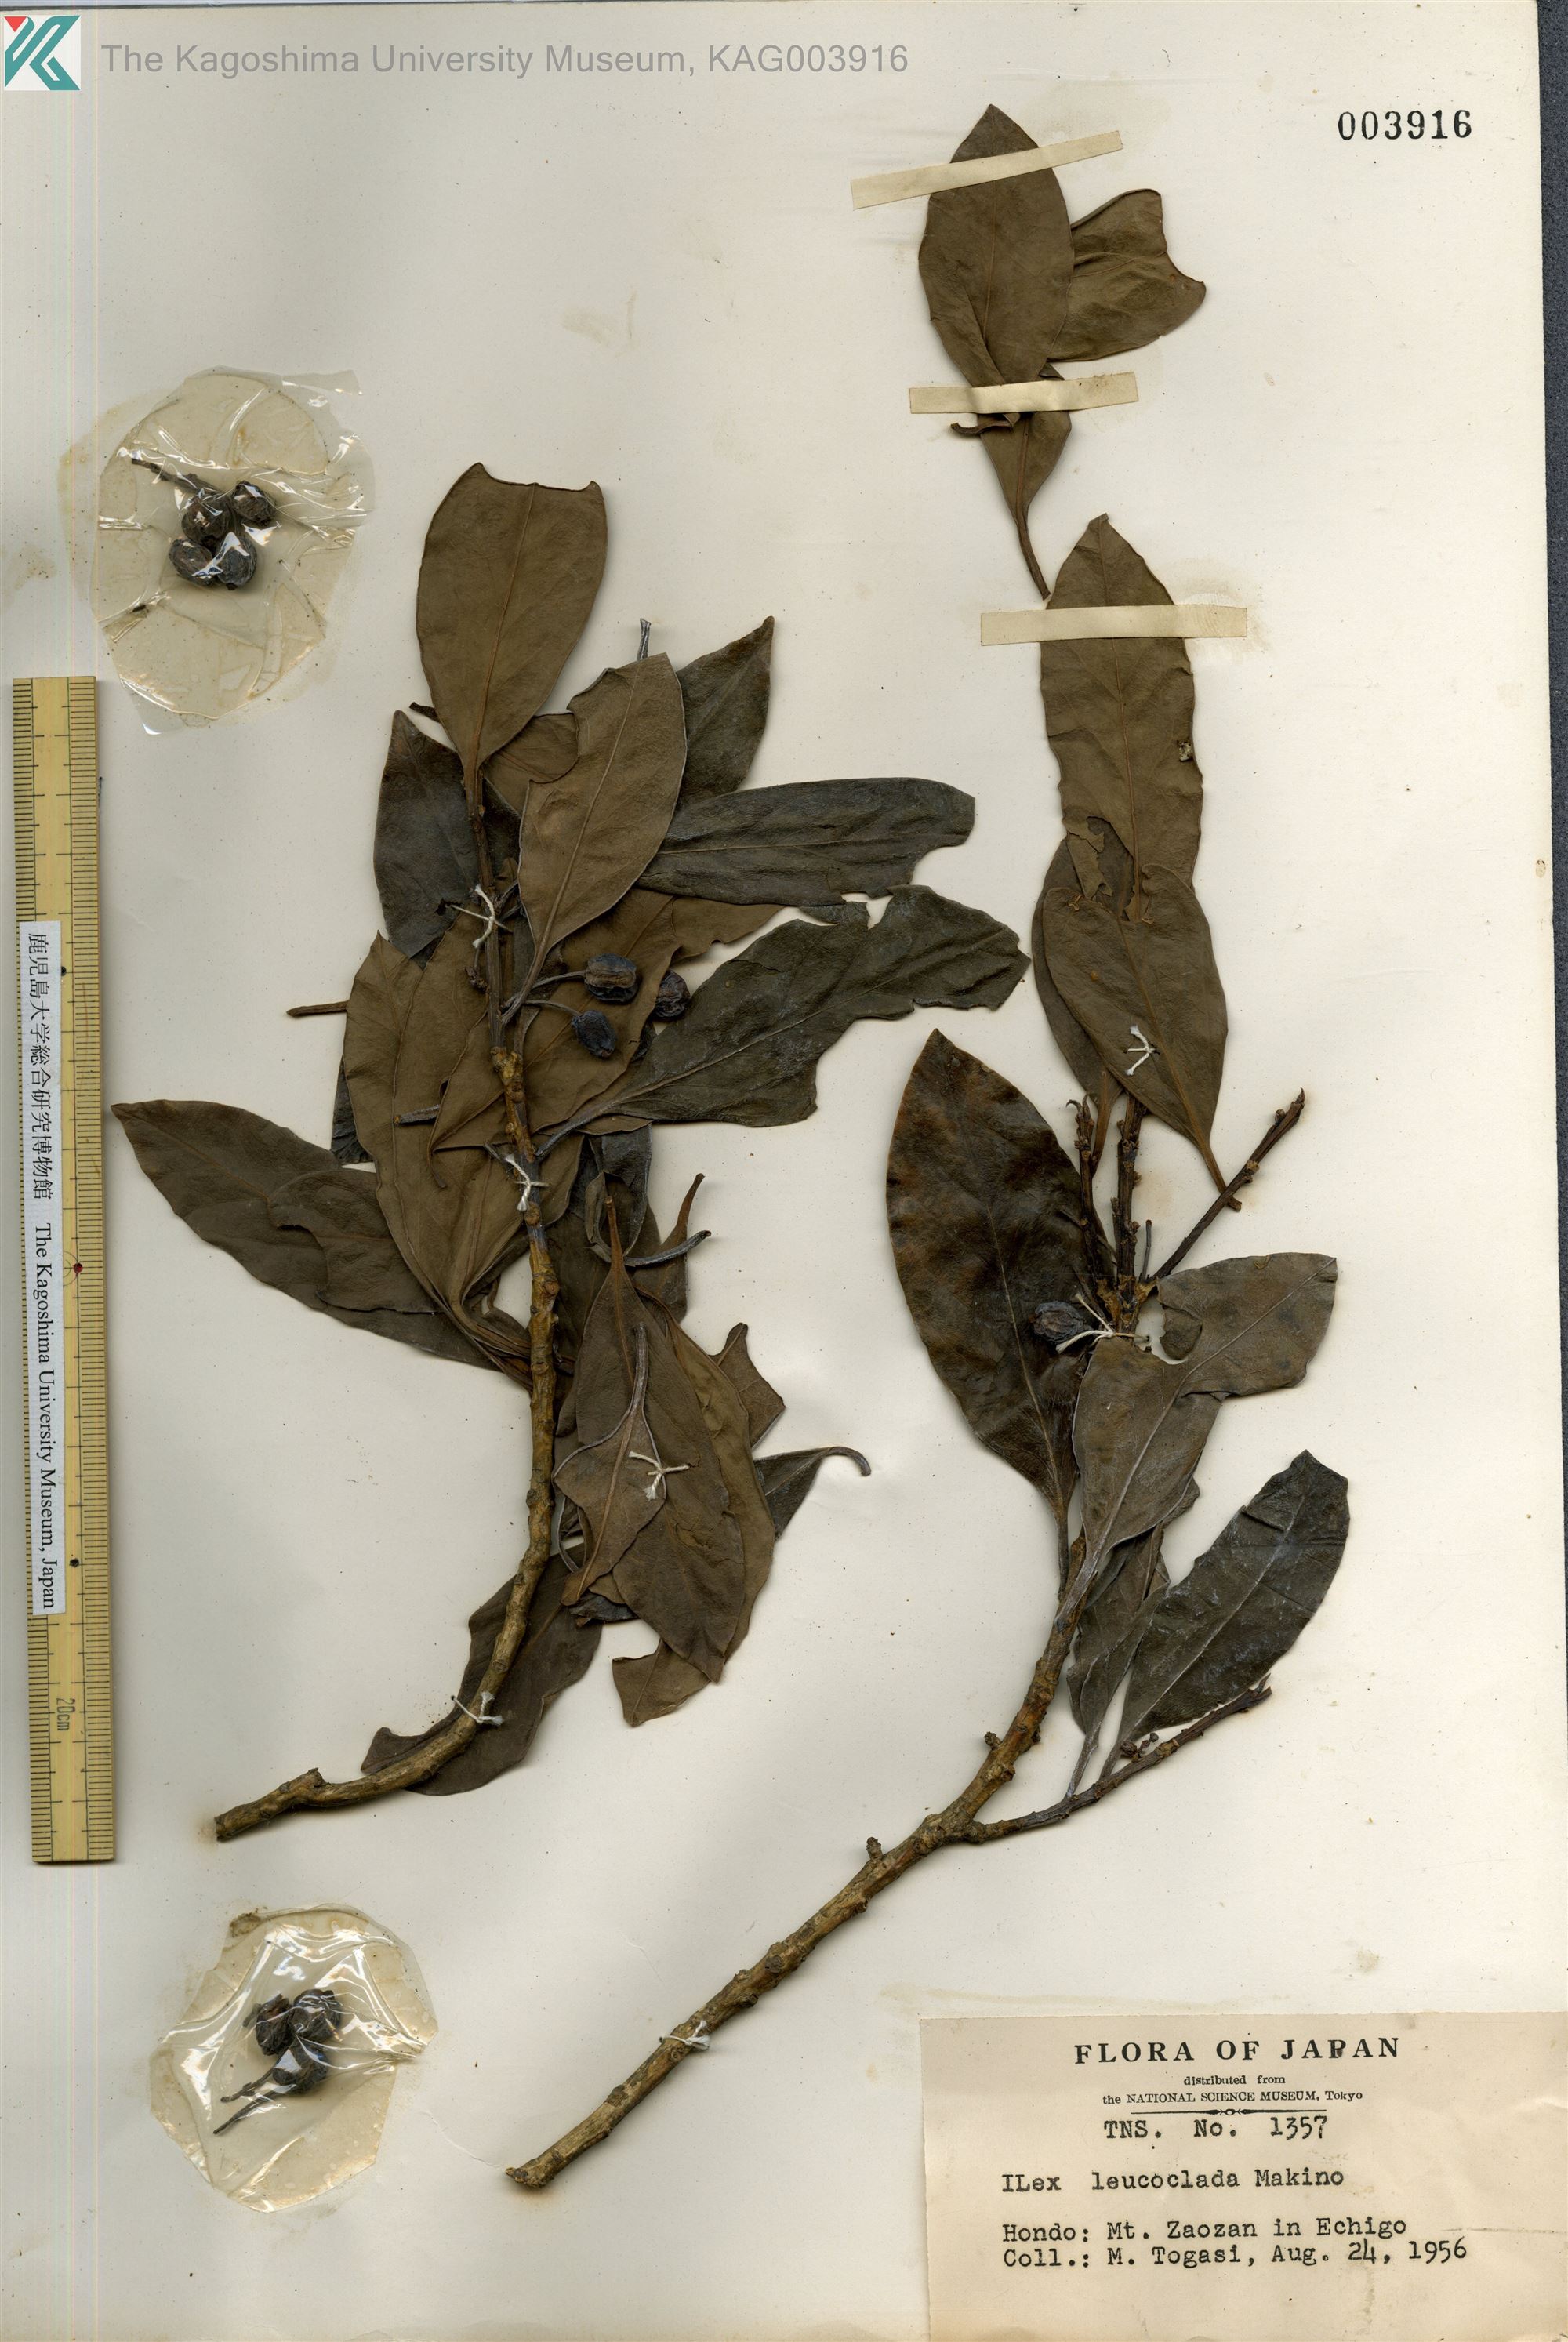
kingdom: Plantae
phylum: Tracheophyta
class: Magnoliopsida
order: Aquifoliales
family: Aquifoliaceae
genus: Ilex
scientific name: Ilex leucoclada
